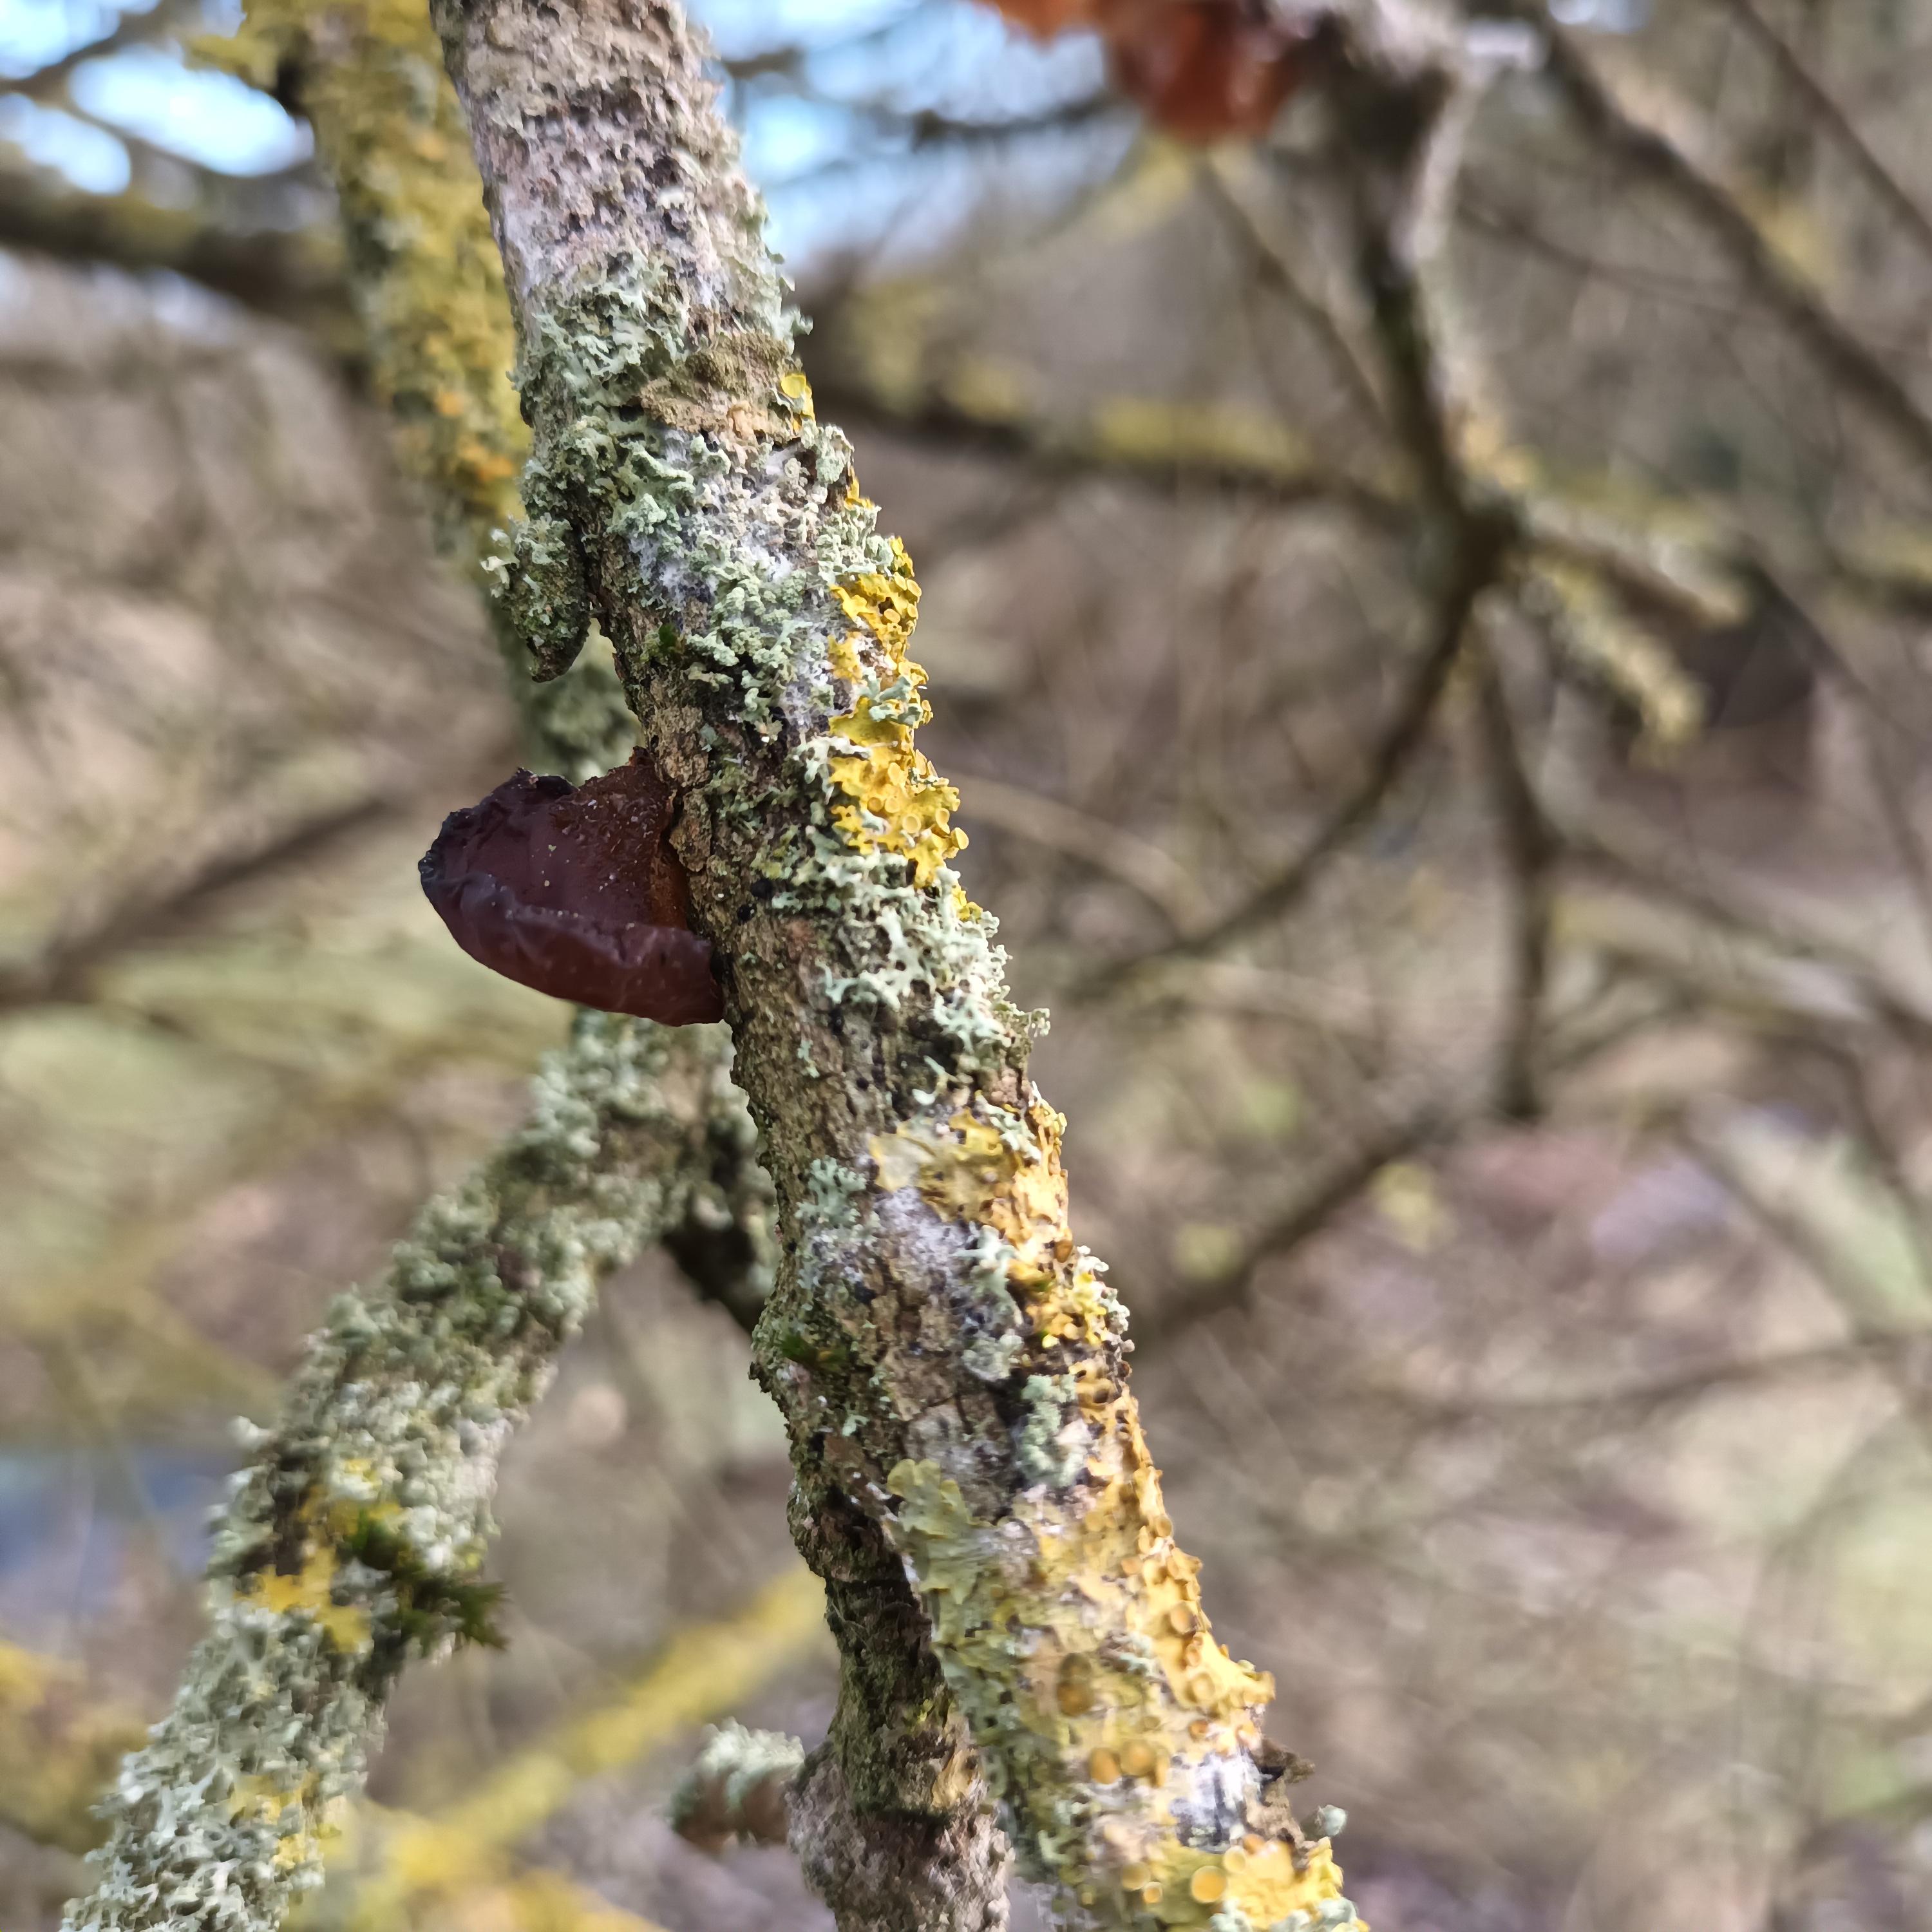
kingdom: Fungi
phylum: Basidiomycota
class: Agaricomycetes
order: Auriculariales
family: Auriculariaceae
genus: Exidia
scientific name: Exidia recisa
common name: pile-bævretop
